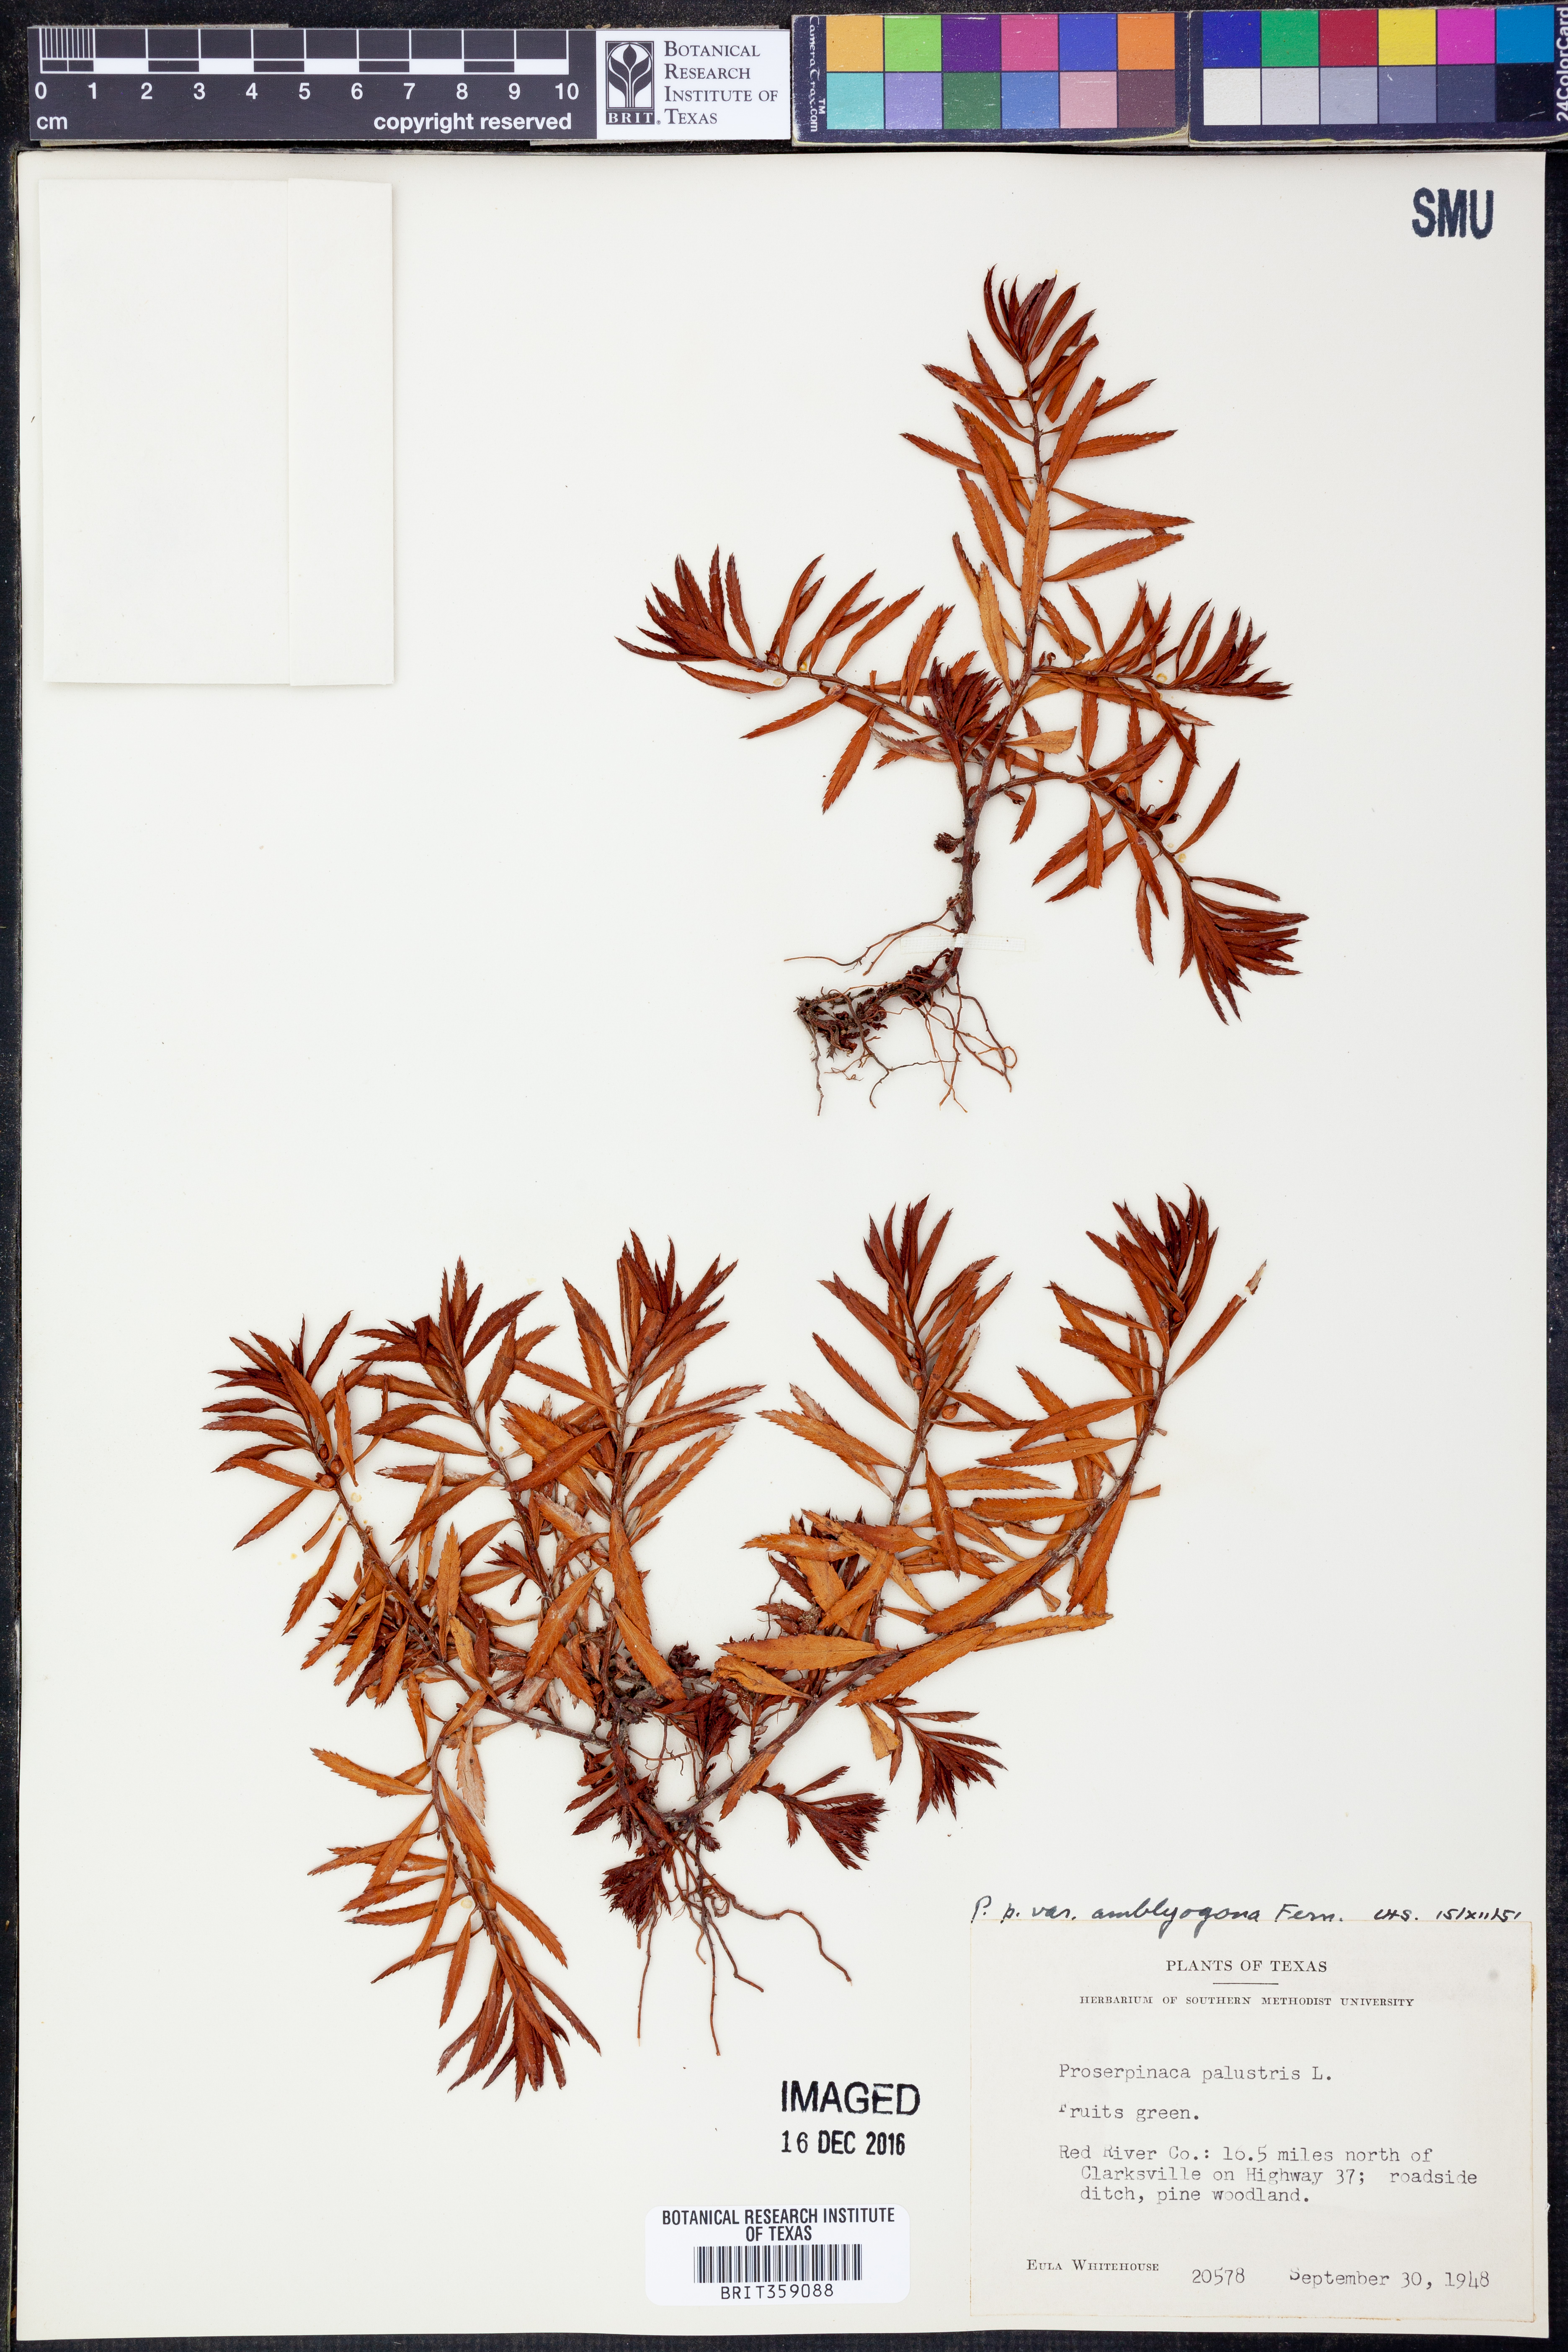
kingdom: Plantae
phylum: Tracheophyta
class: Magnoliopsida
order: Saxifragales
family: Haloragaceae
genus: Proserpinaca
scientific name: Proserpinaca palustris
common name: Marsh mermaidweed
